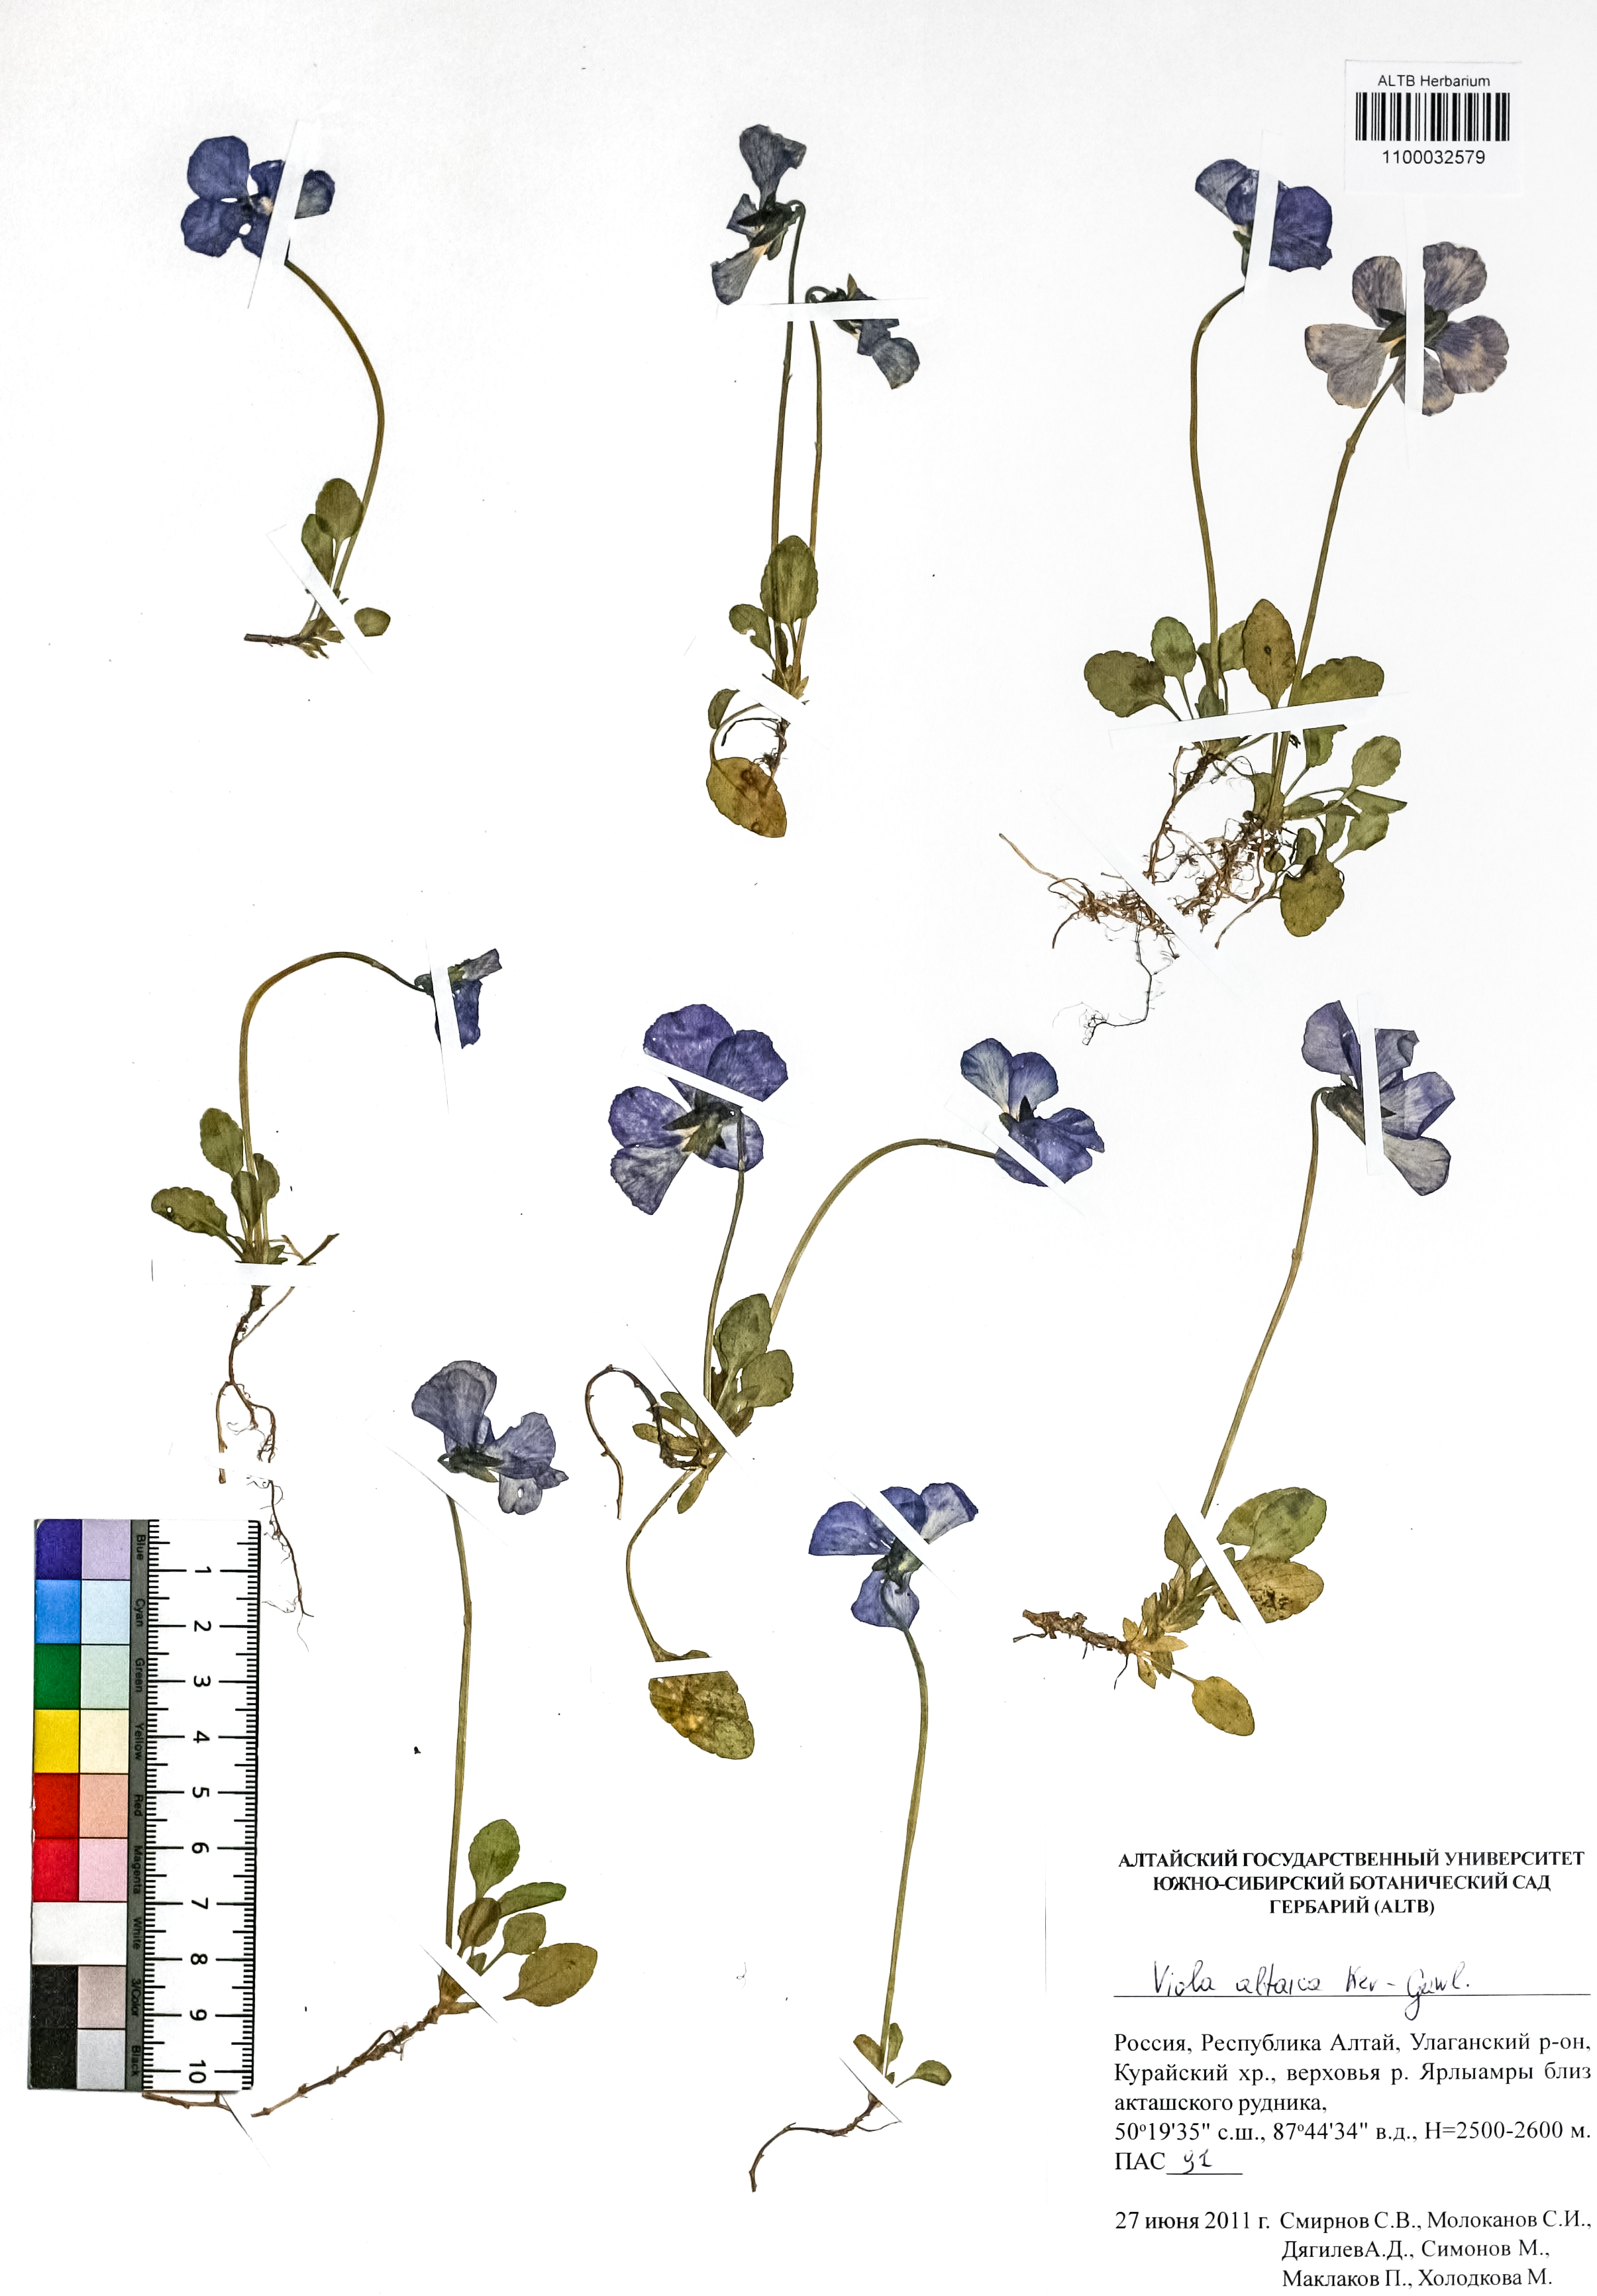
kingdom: Plantae
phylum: Tracheophyta
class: Magnoliopsida
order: Malpighiales
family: Violaceae
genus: Viola
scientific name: Viola altaica
